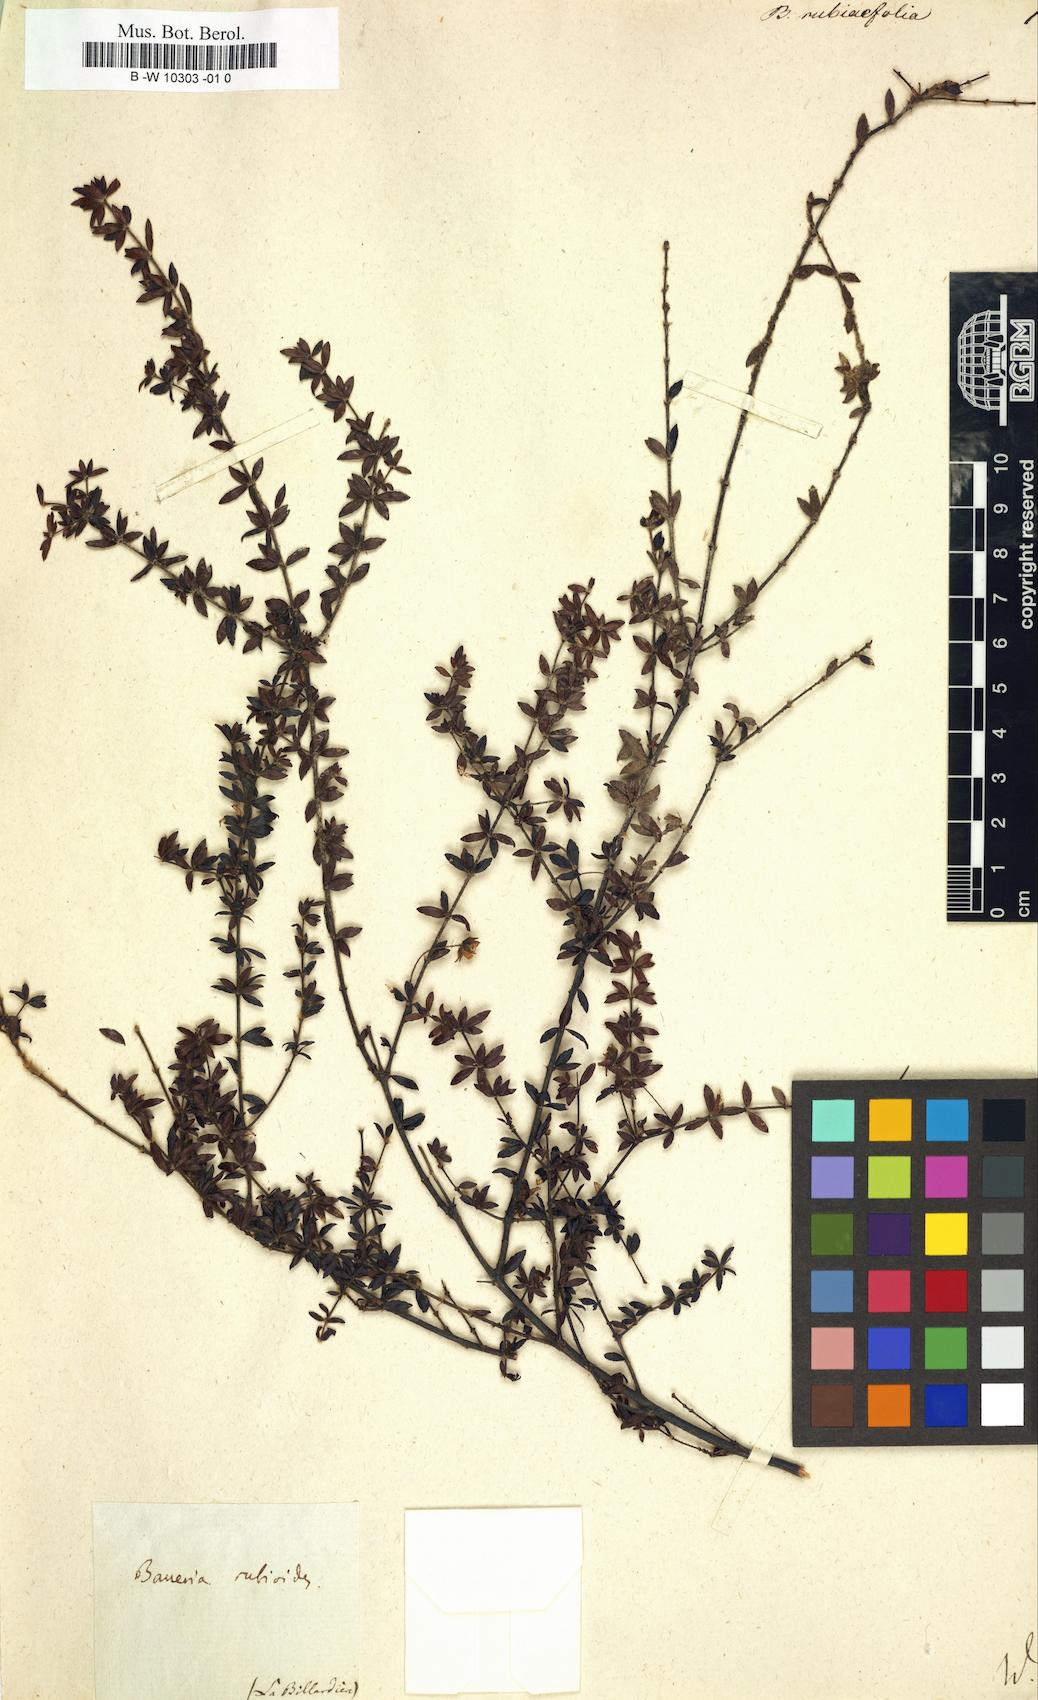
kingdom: Plantae
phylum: Tracheophyta
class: Magnoliopsida
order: Oxalidales
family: Cunoniaceae
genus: Bauera
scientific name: Bauera rubiifolia
